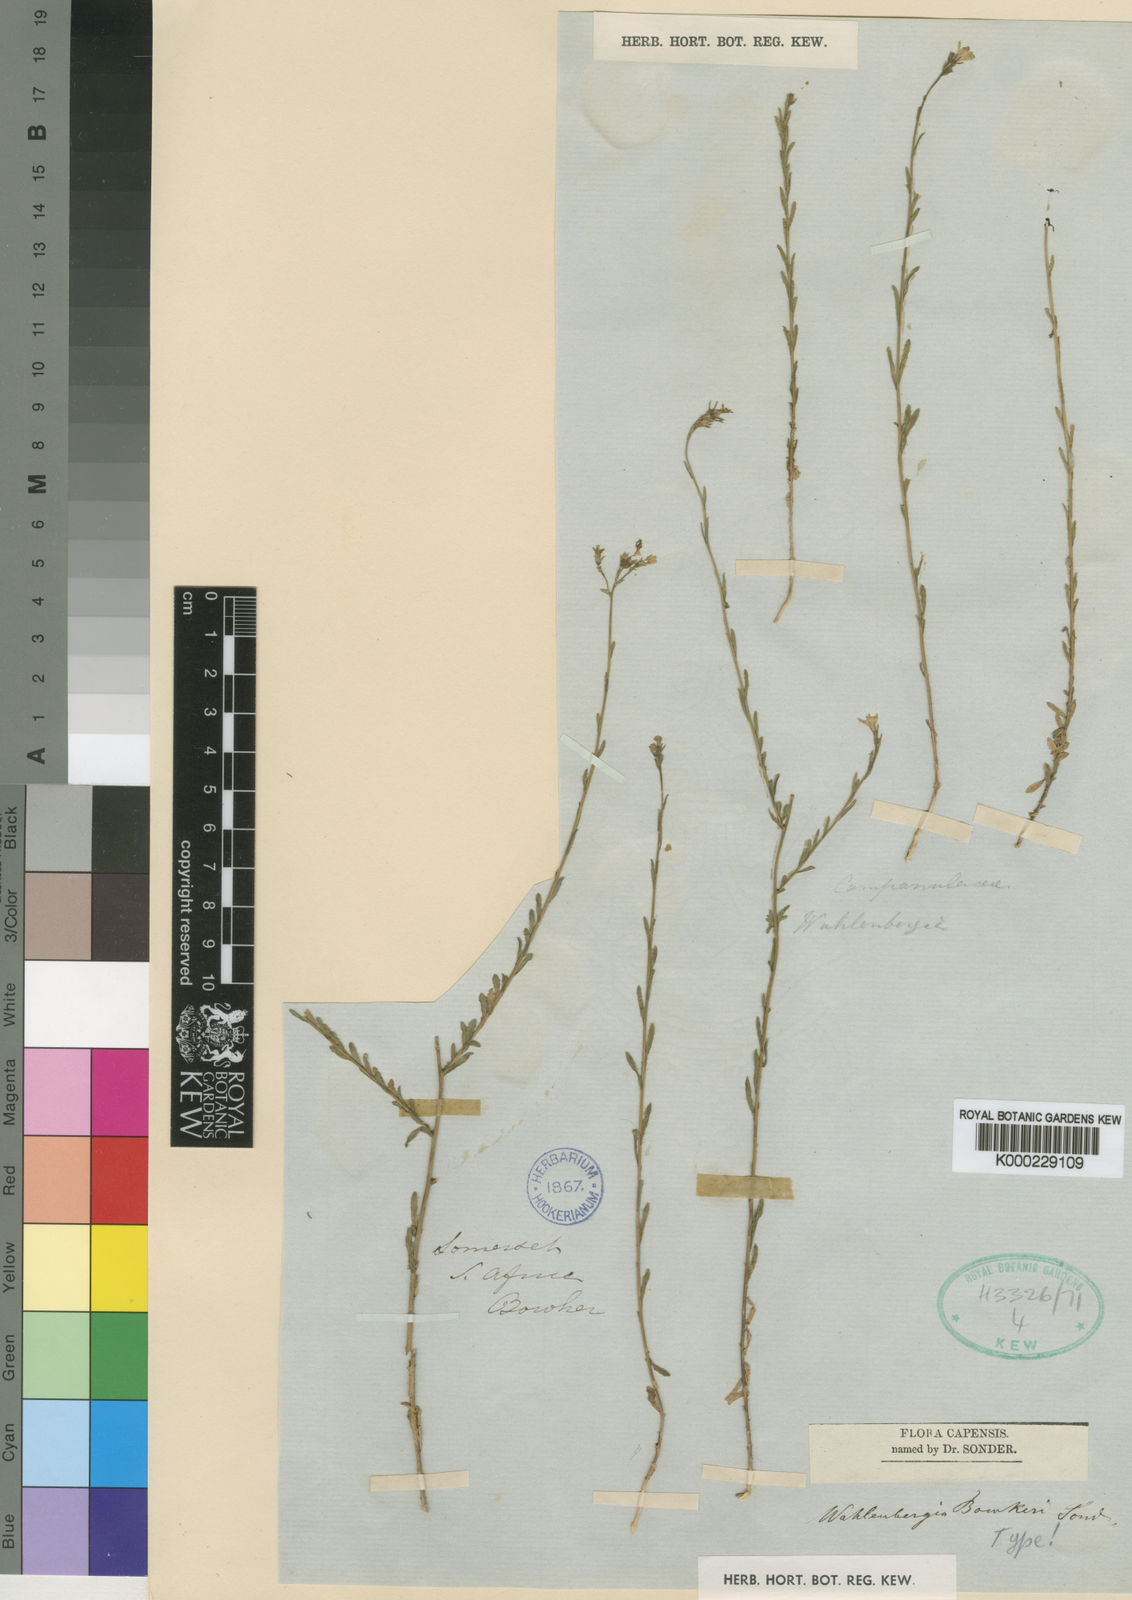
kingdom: Plantae
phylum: Tracheophyta
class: Magnoliopsida
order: Asterales
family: Campanulaceae
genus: Wahlenbergia
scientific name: Wahlenbergia bowkerae
